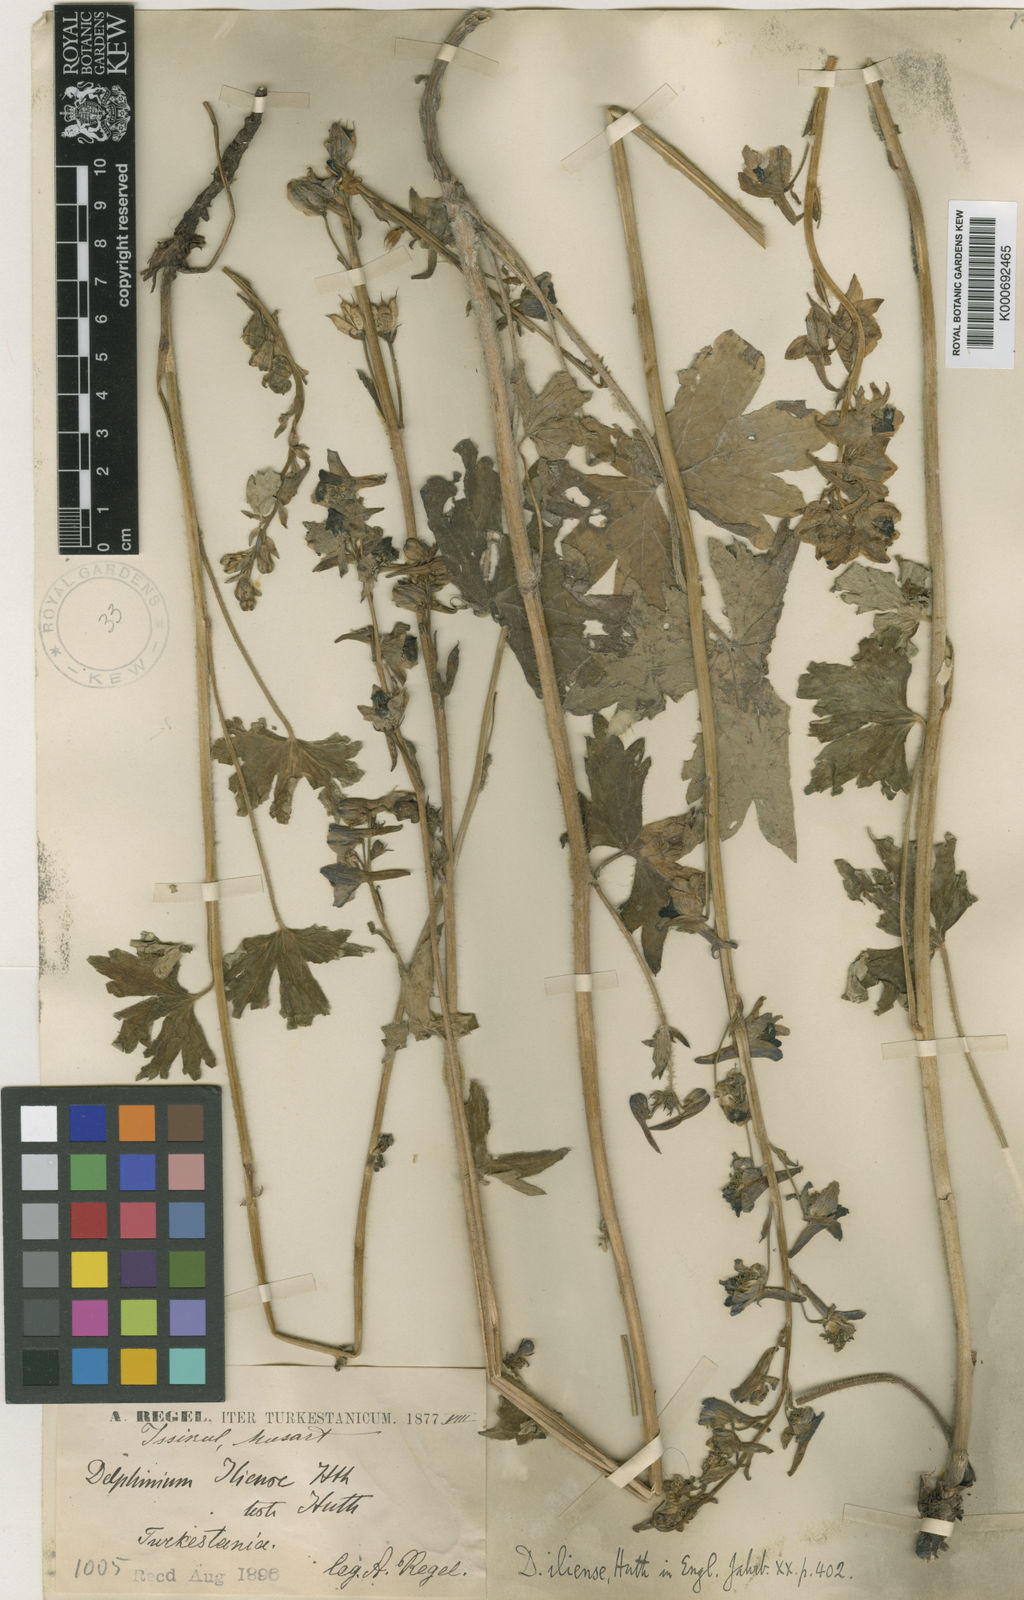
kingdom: Plantae
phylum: Tracheophyta
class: Magnoliopsida
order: Ranunculales
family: Ranunculaceae
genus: Delphinium
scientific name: Delphinium corymbosum
